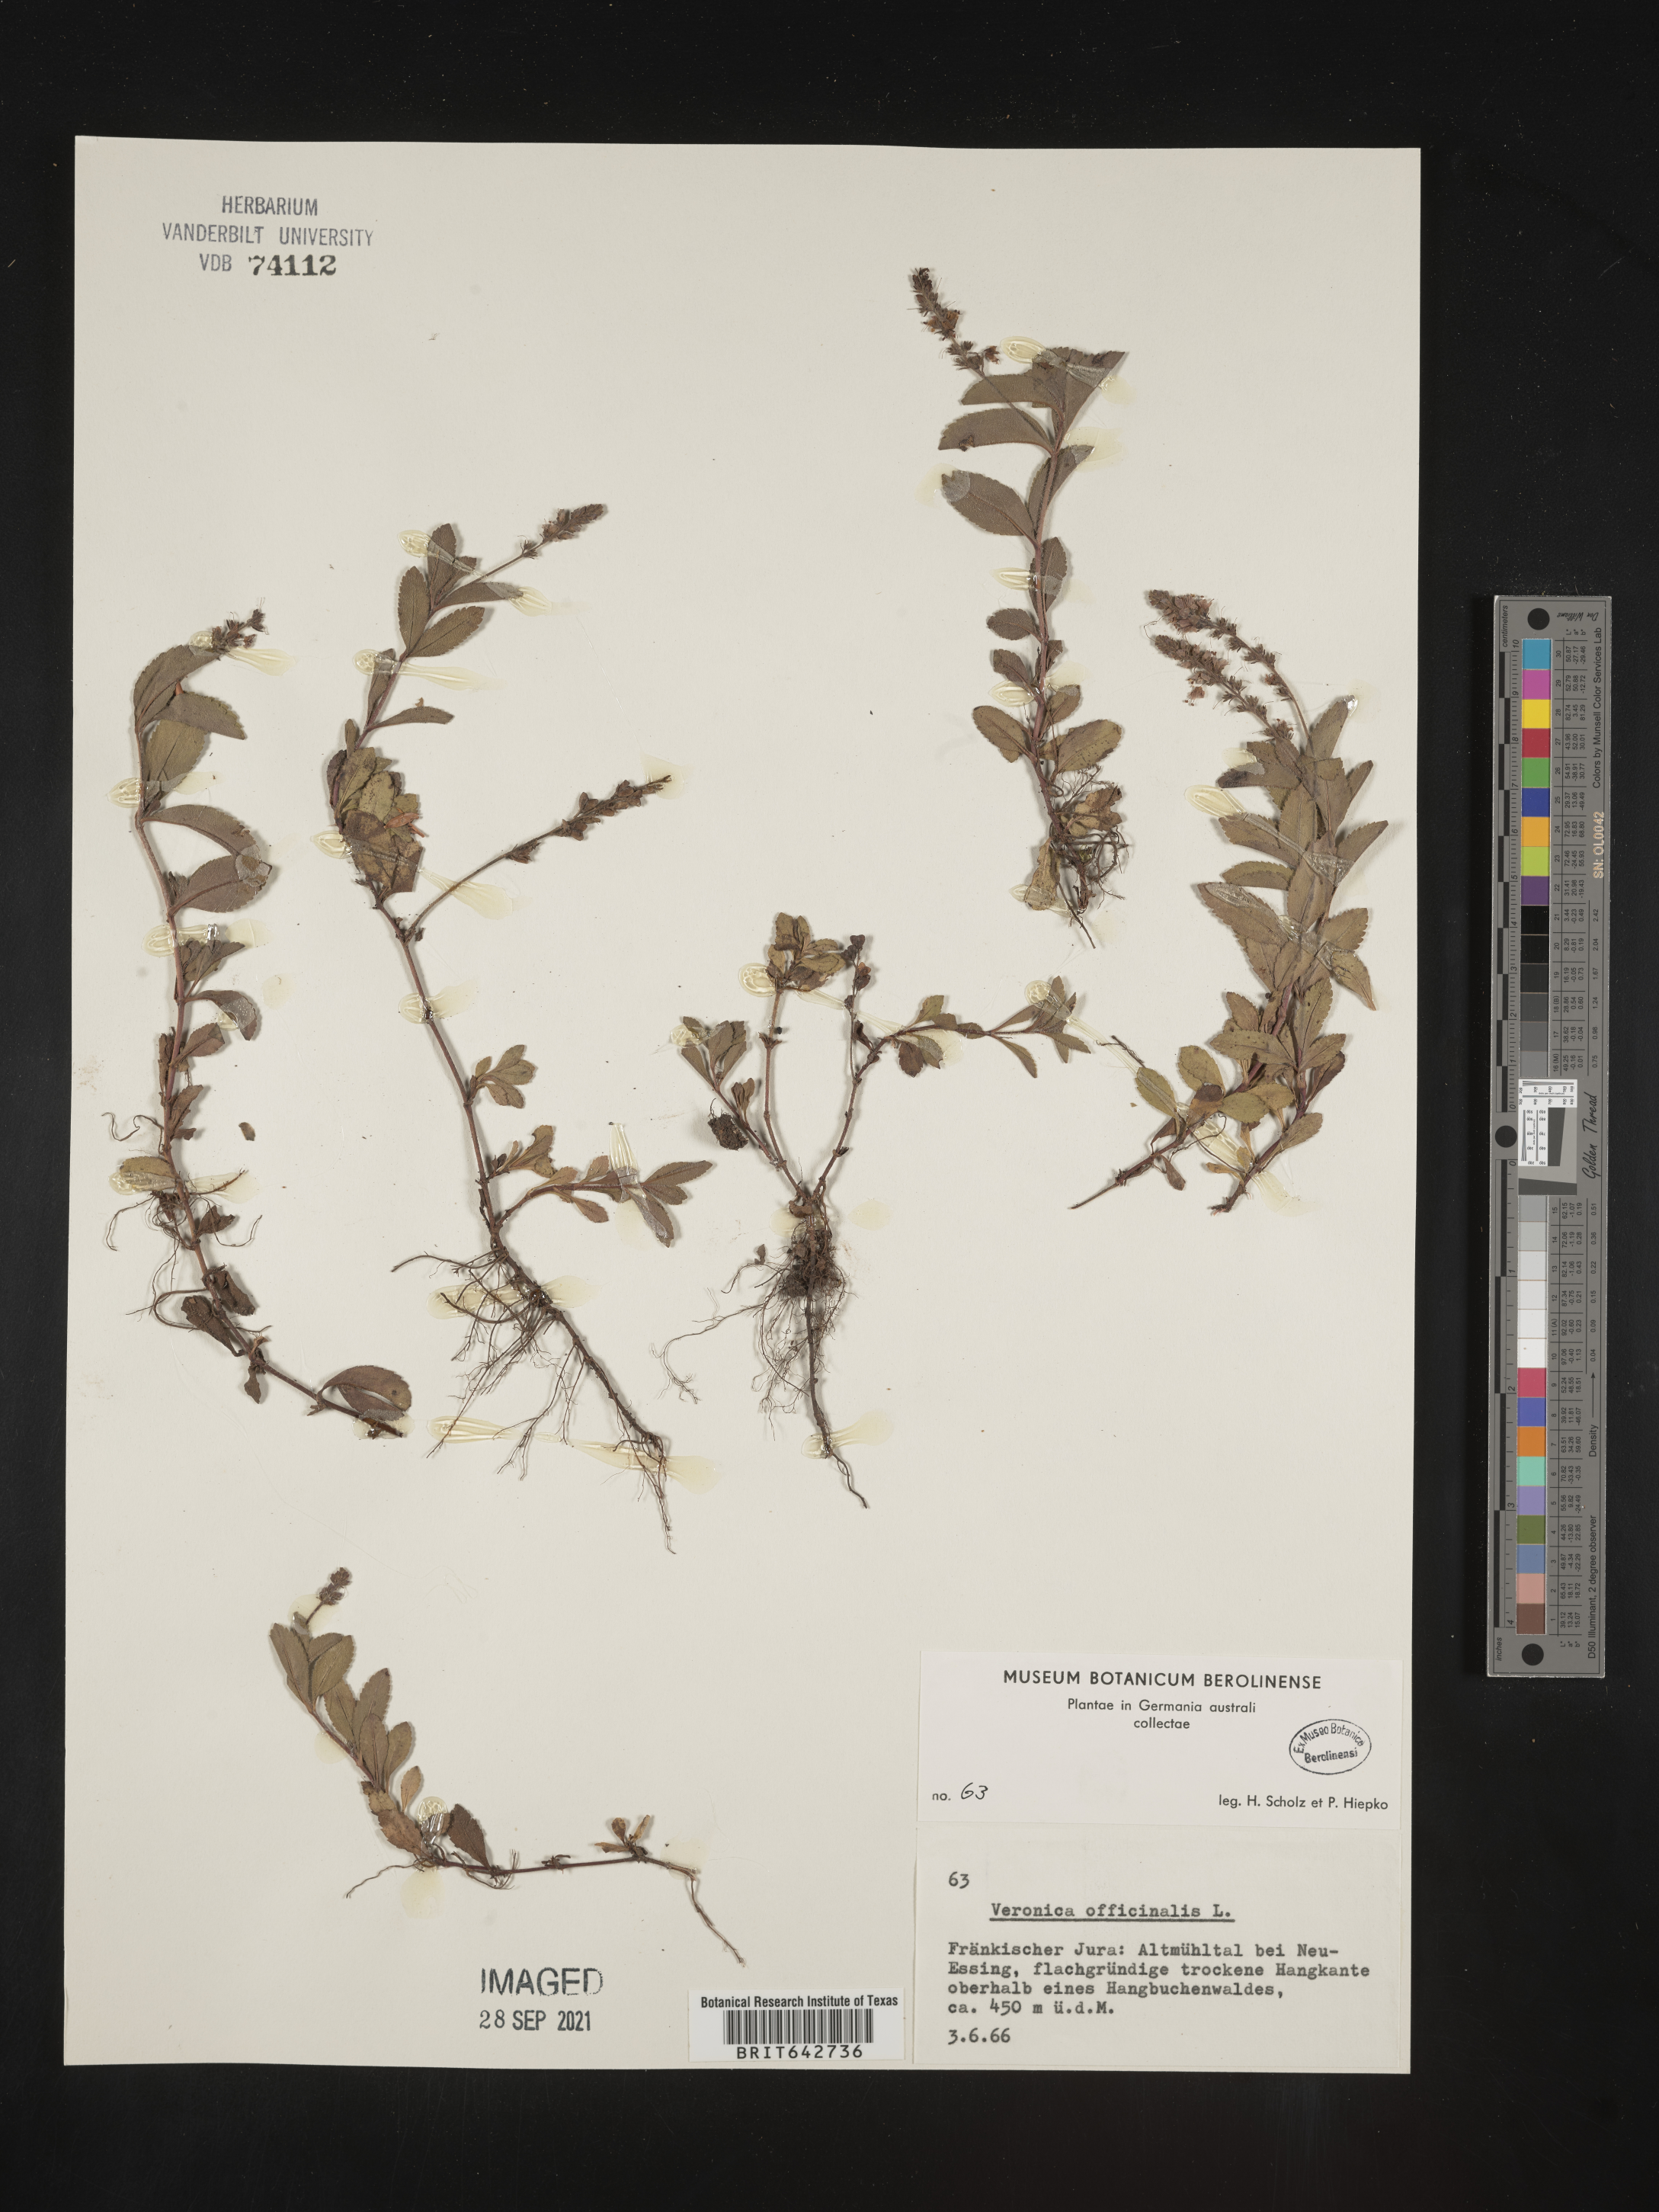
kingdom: Plantae
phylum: Tracheophyta
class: Magnoliopsida
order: Lamiales
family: Plantaginaceae
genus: Veronica
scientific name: Veronica
